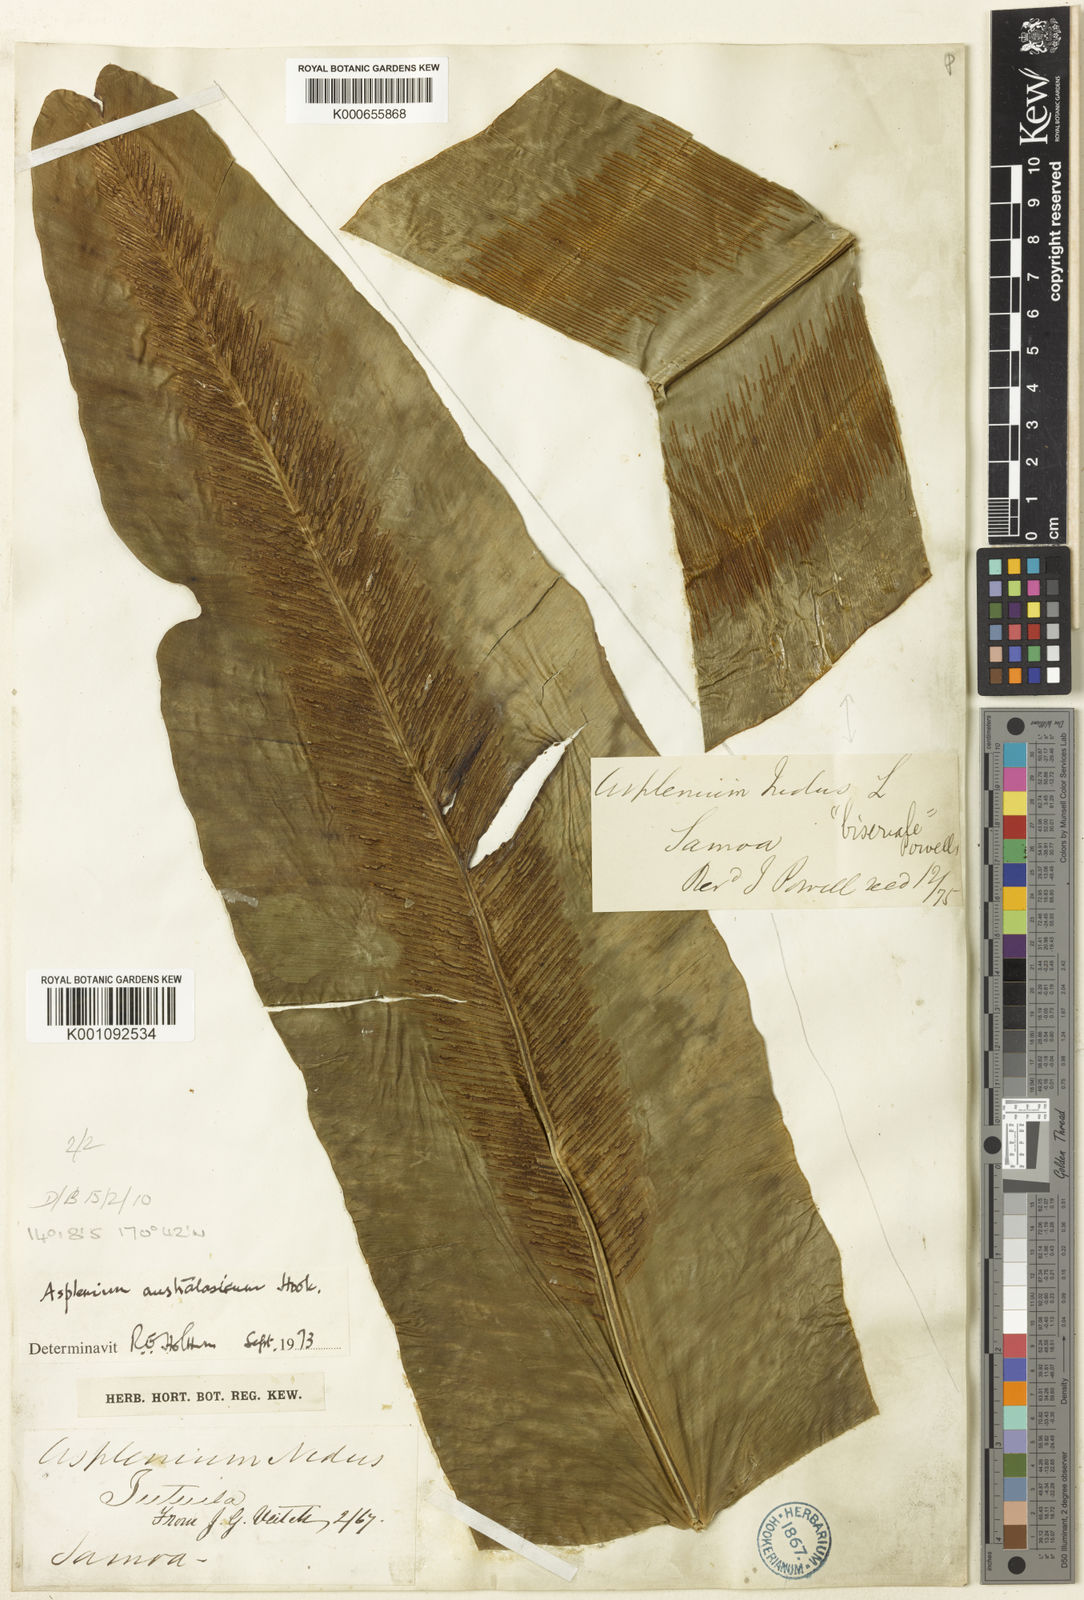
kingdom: Plantae
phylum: Tracheophyta
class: Polypodiopsida
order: Polypodiales
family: Aspleniaceae
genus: Asplenium
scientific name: Asplenium nidus
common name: Bird's-nest fern
